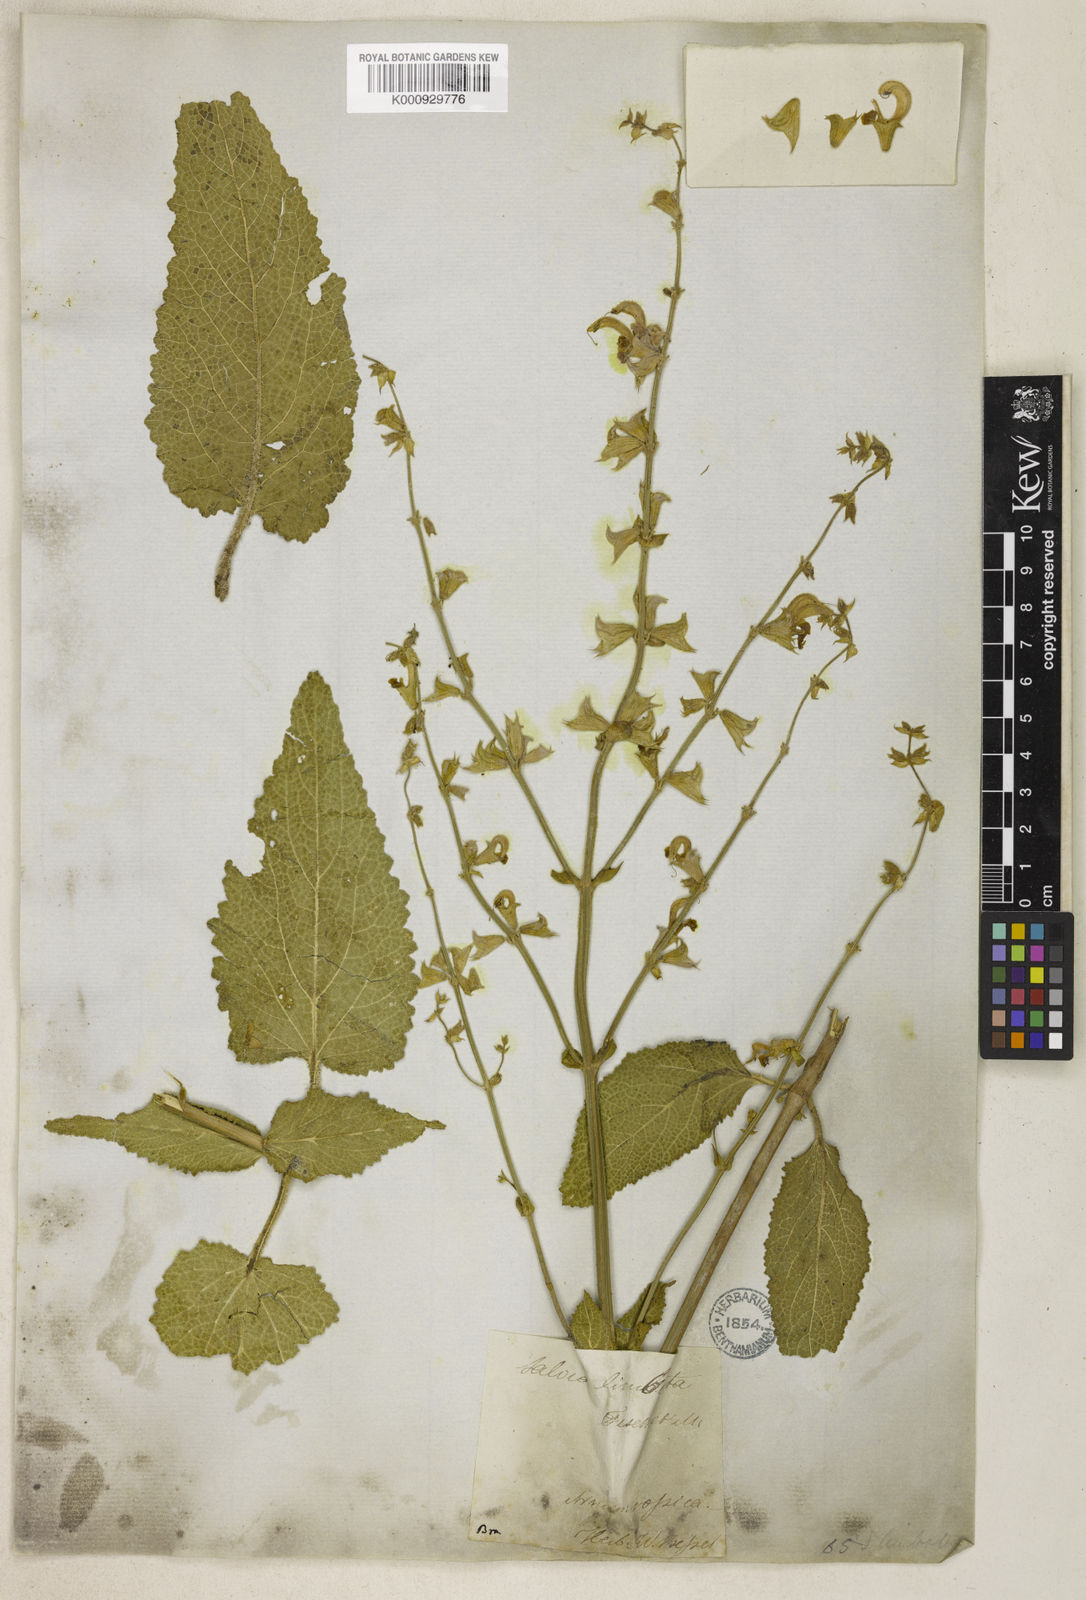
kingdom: Plantae
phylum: Tracheophyta
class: Magnoliopsida
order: Lamiales
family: Lamiaceae
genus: Salvia
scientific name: Salvia limbata
